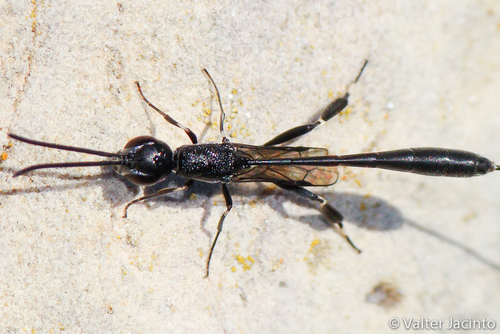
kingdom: Animalia
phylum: Arthropoda
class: Insecta
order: Hymenoptera
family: Gasteruptiidae
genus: Gasteruption
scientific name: Gasteruption
